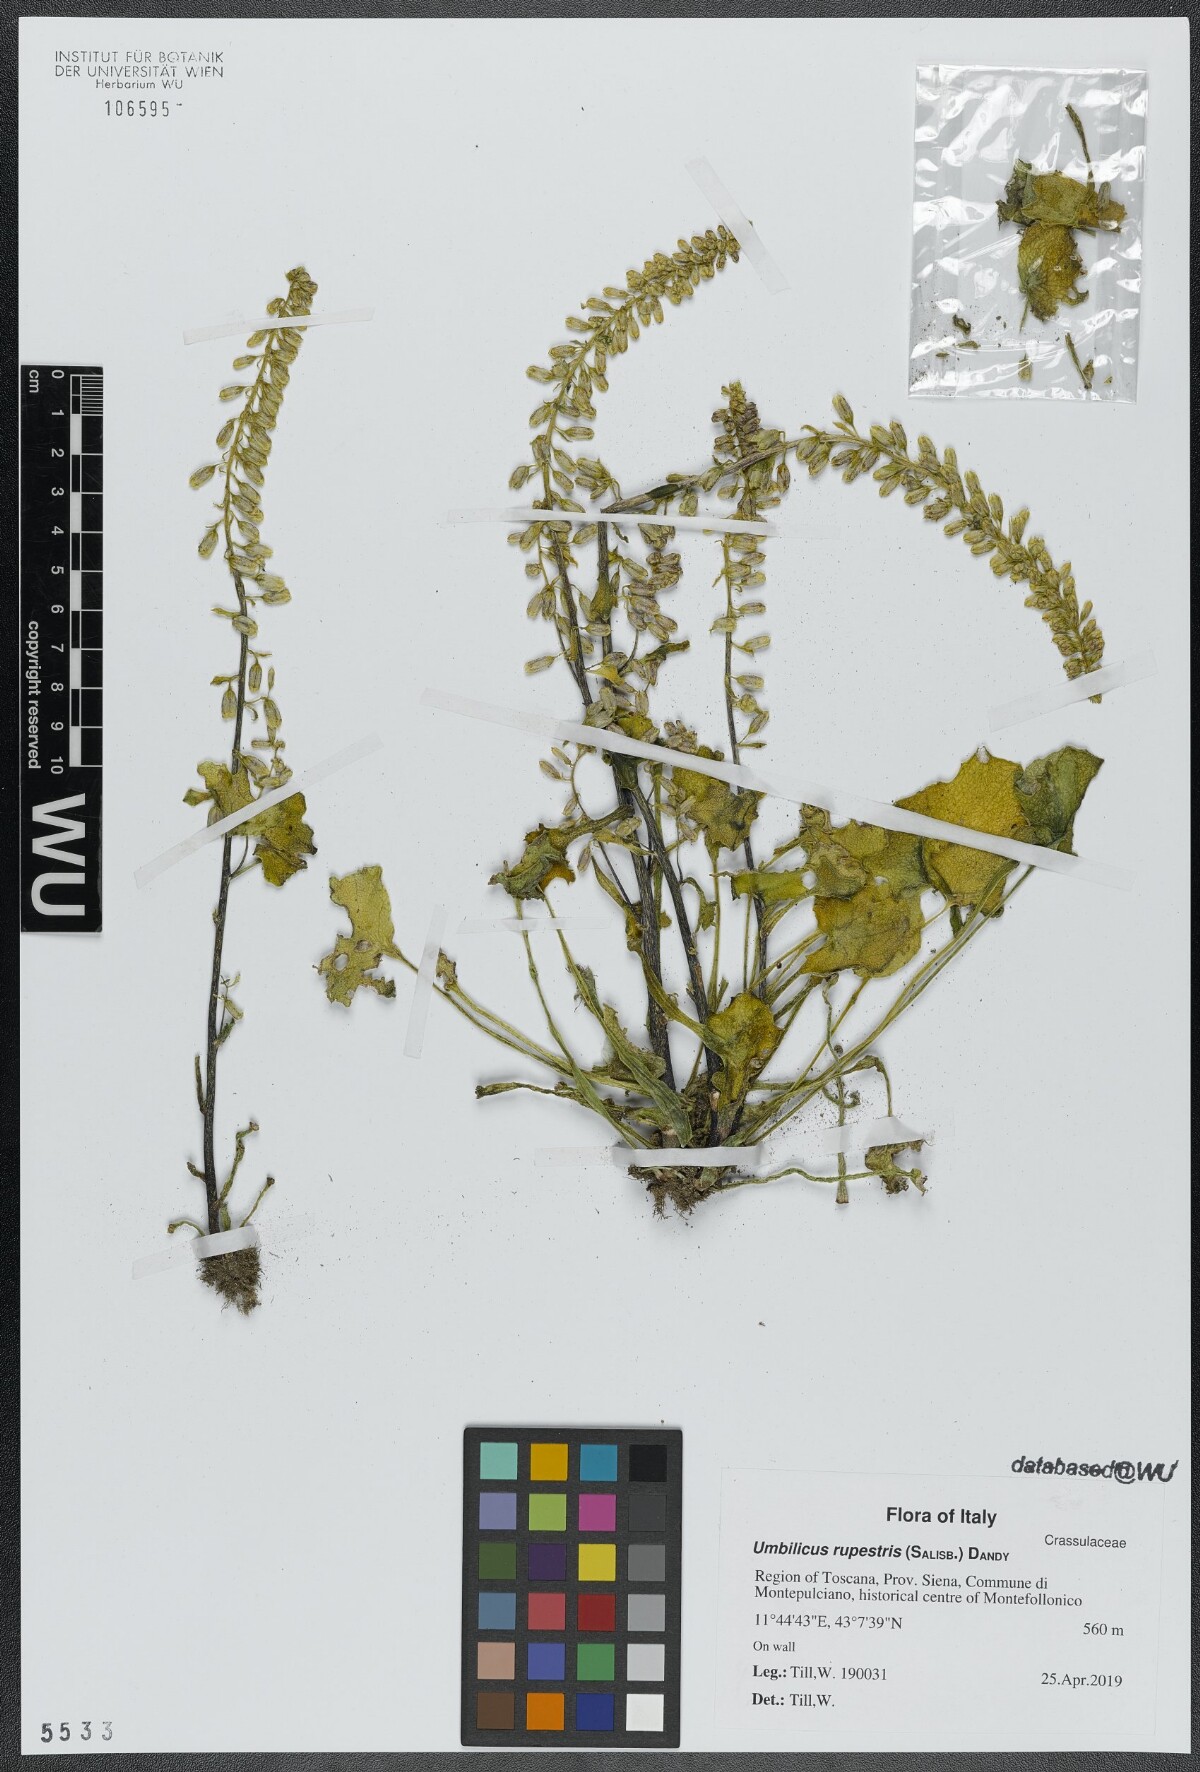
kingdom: Plantae
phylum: Tracheophyta
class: Magnoliopsida
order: Saxifragales
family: Crassulaceae
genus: Umbilicus
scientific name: Umbilicus rupestris
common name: Navelwort
